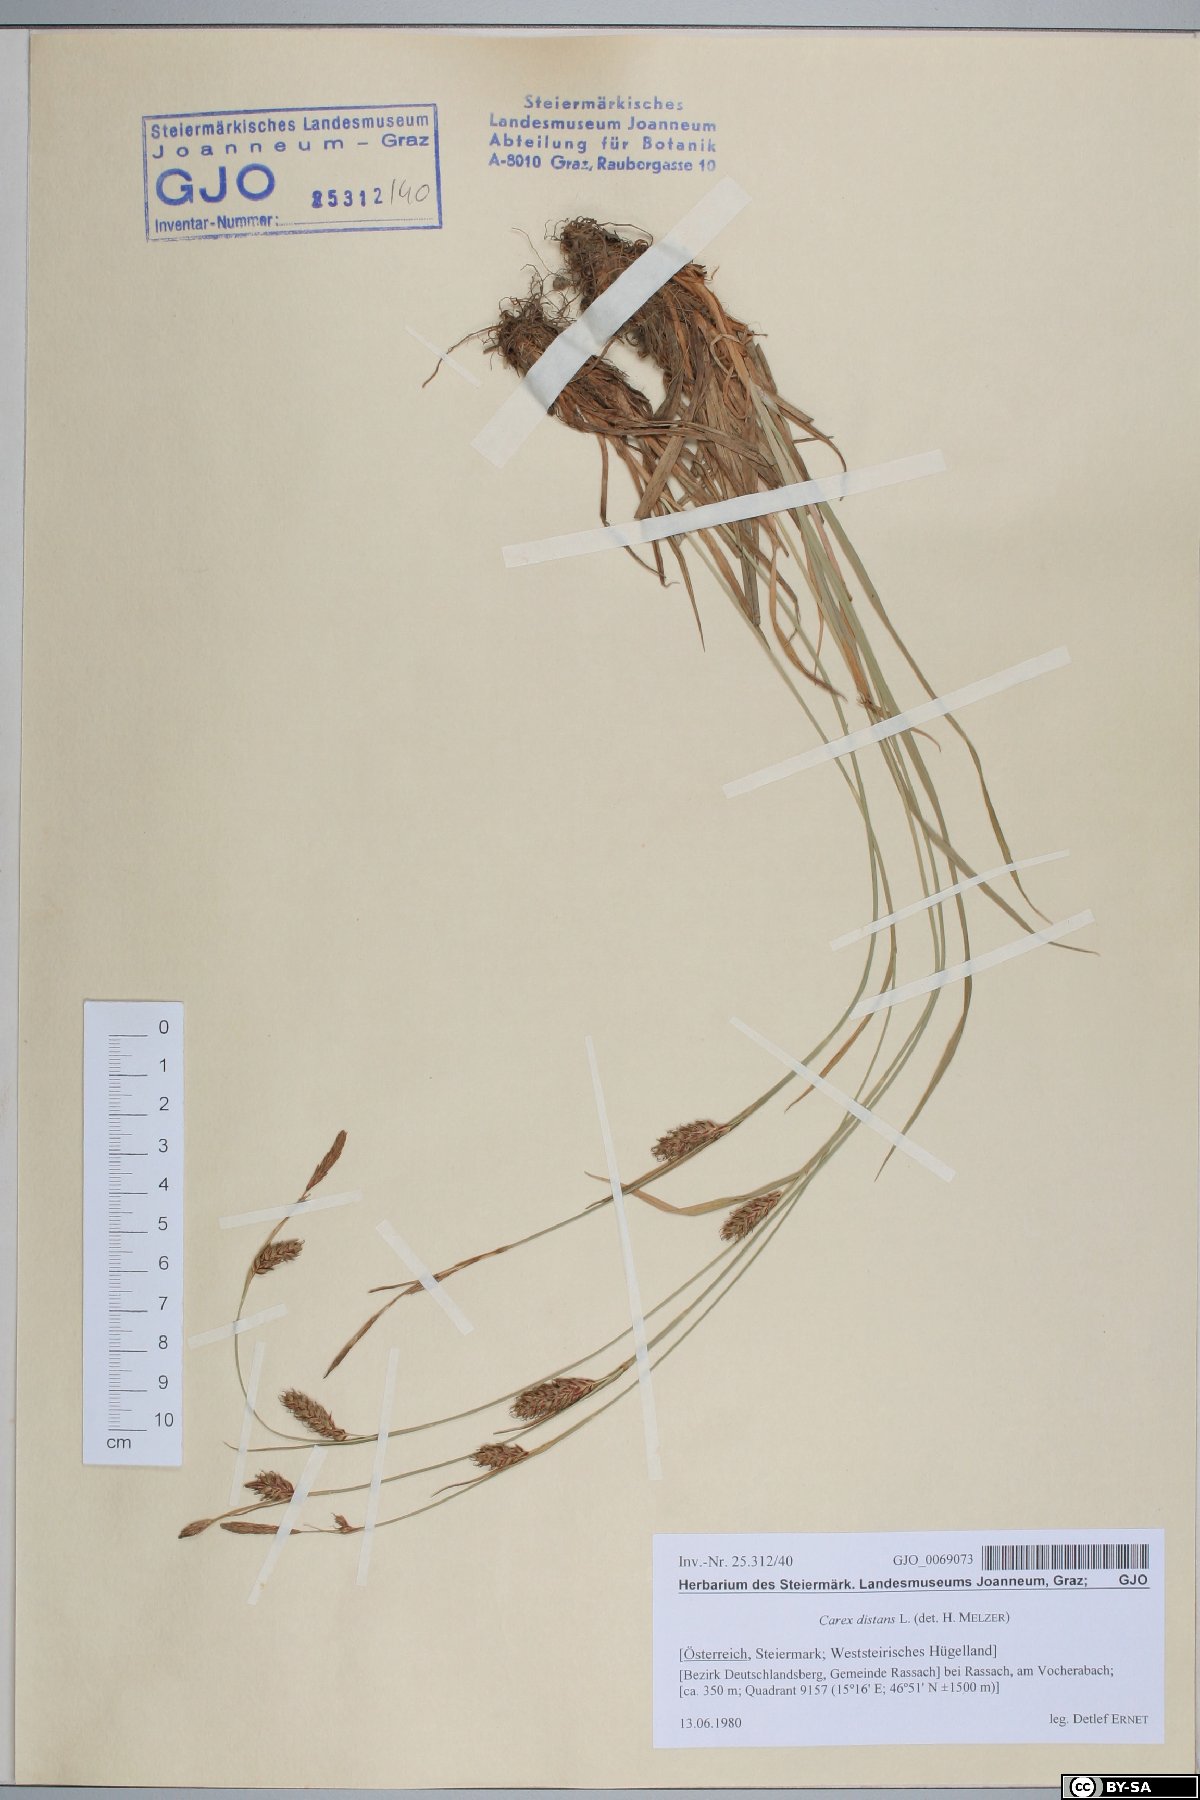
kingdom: Plantae
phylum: Tracheophyta
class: Liliopsida
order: Poales
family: Cyperaceae
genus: Carex
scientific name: Carex distans
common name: Distant sedge
